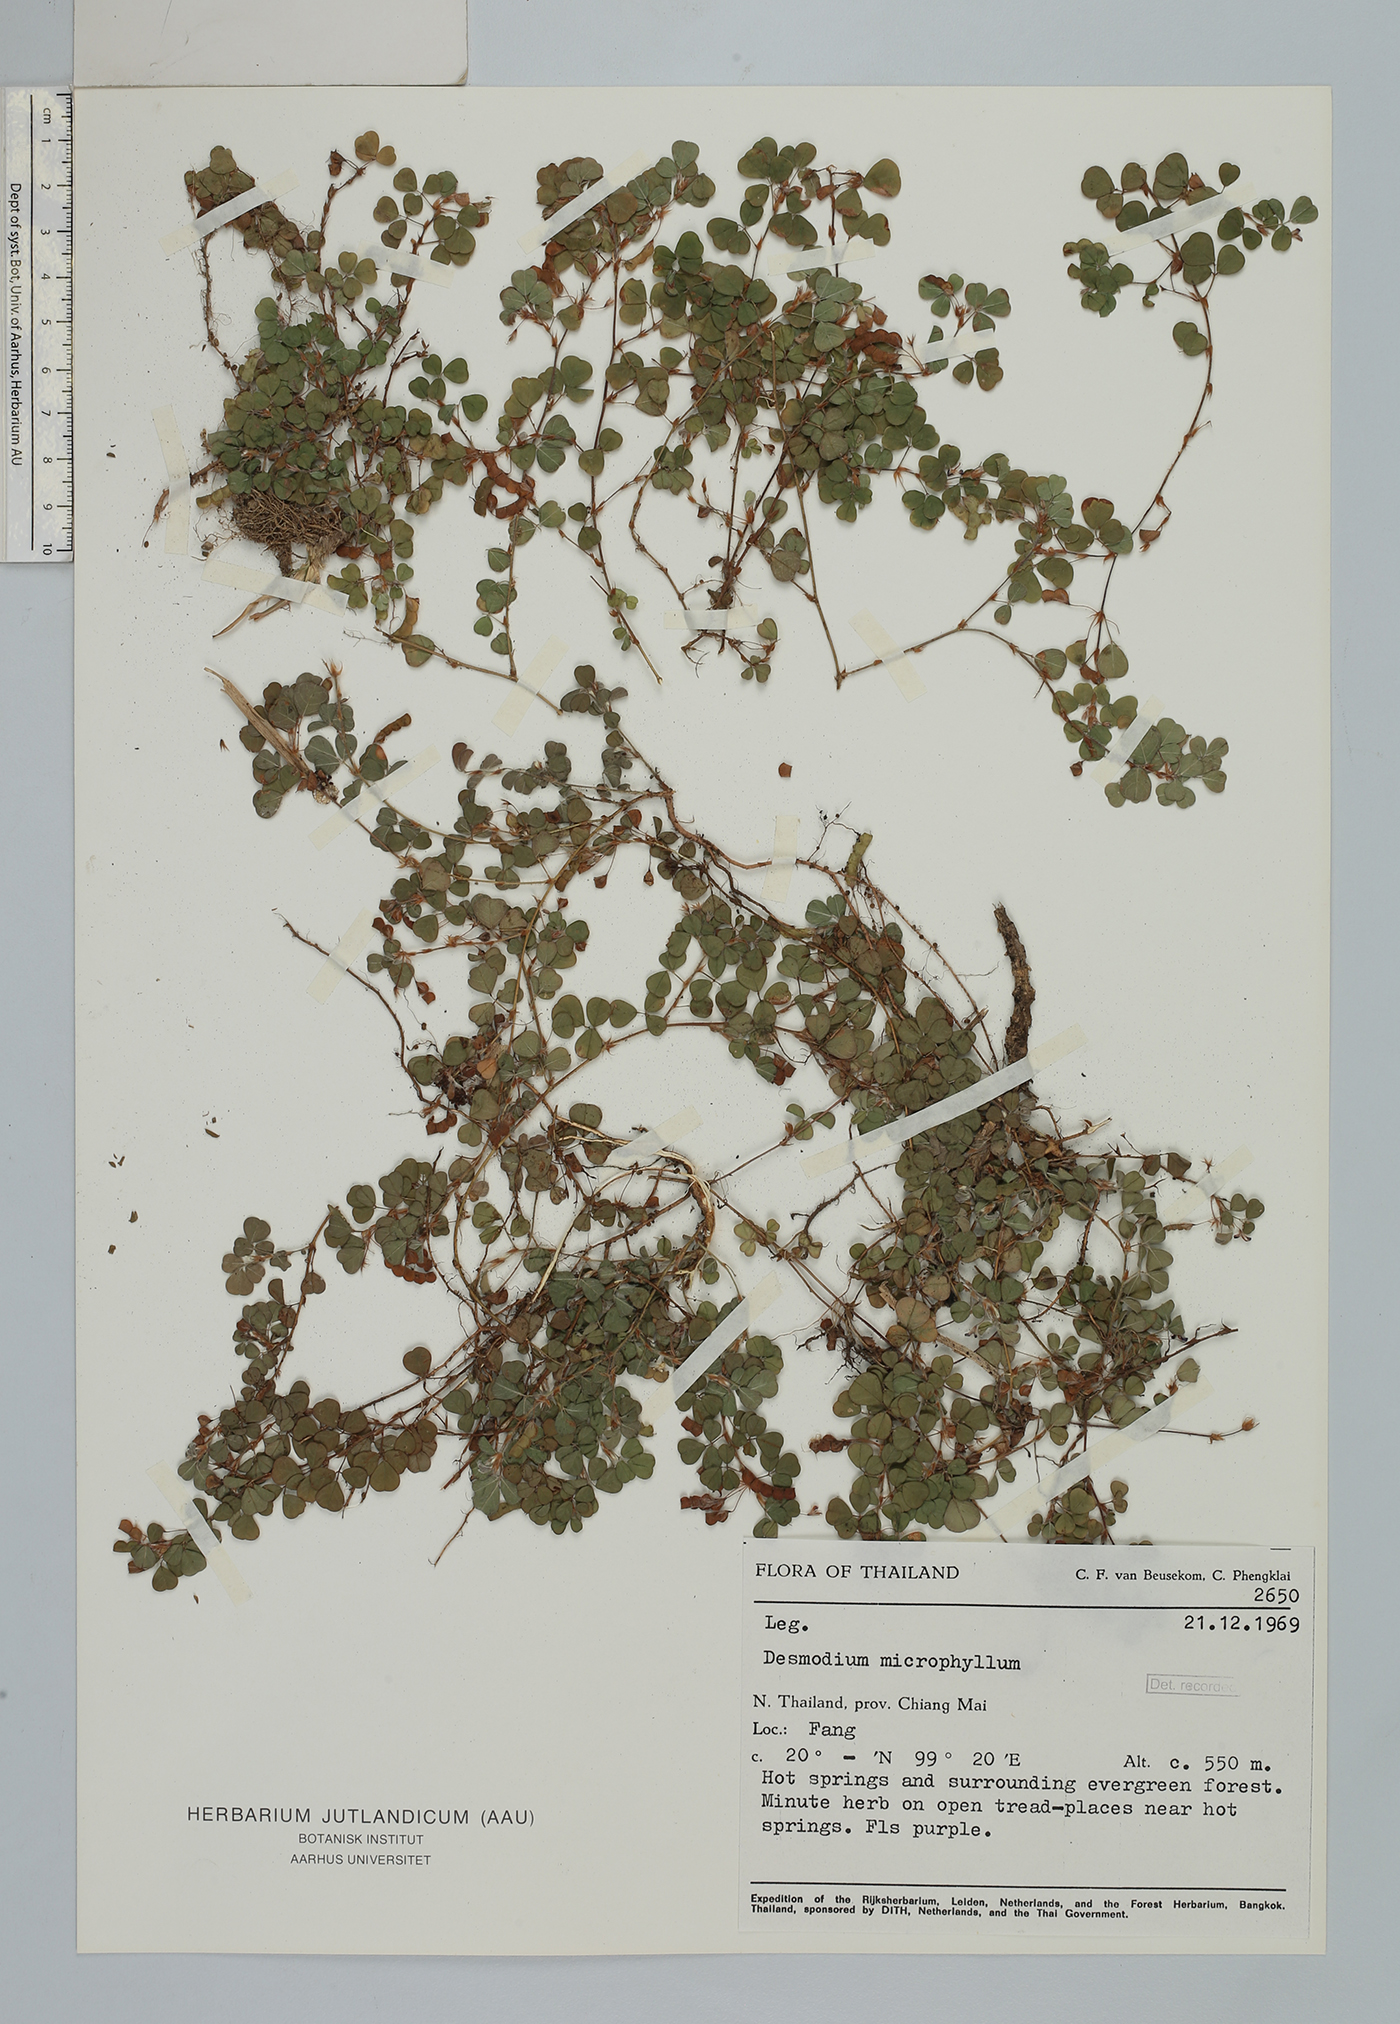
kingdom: Plantae
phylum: Tracheophyta
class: Magnoliopsida
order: Fabales
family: Fabaceae
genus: Grona
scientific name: Grona triflora
